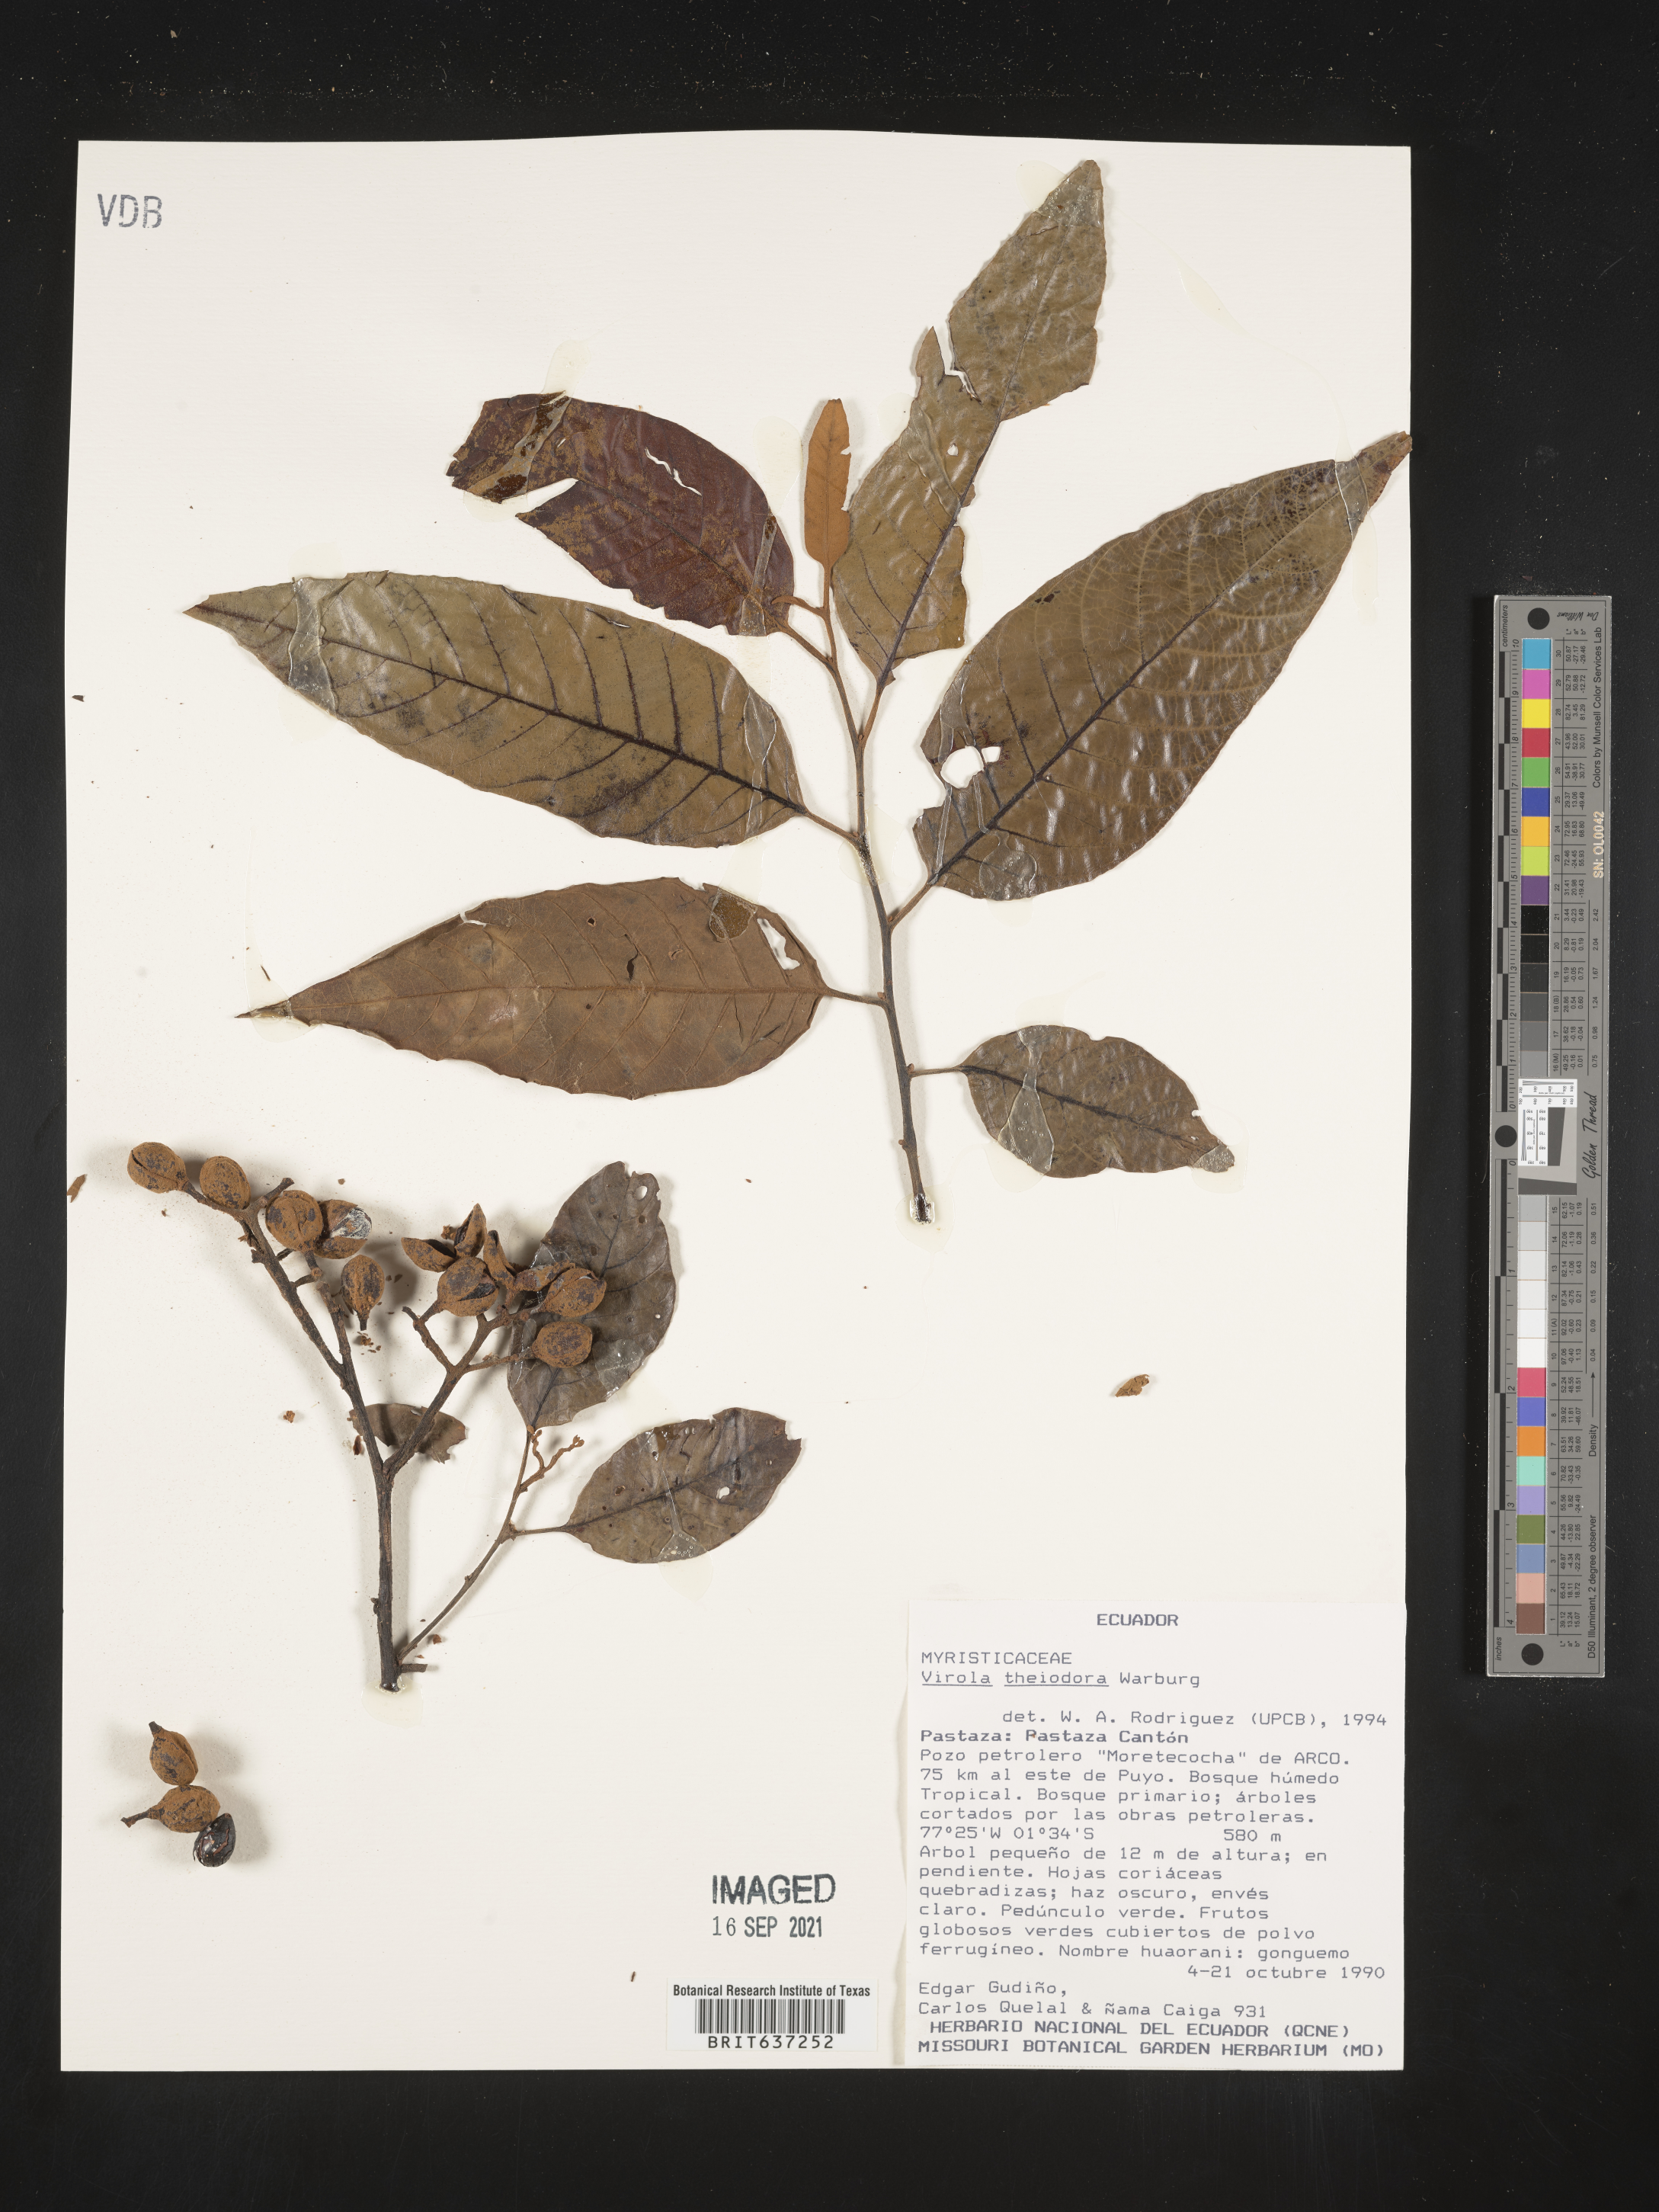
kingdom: Plantae
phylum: Tracheophyta
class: Magnoliopsida
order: Magnoliales
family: Myristicaceae
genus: Virola
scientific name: Virola
